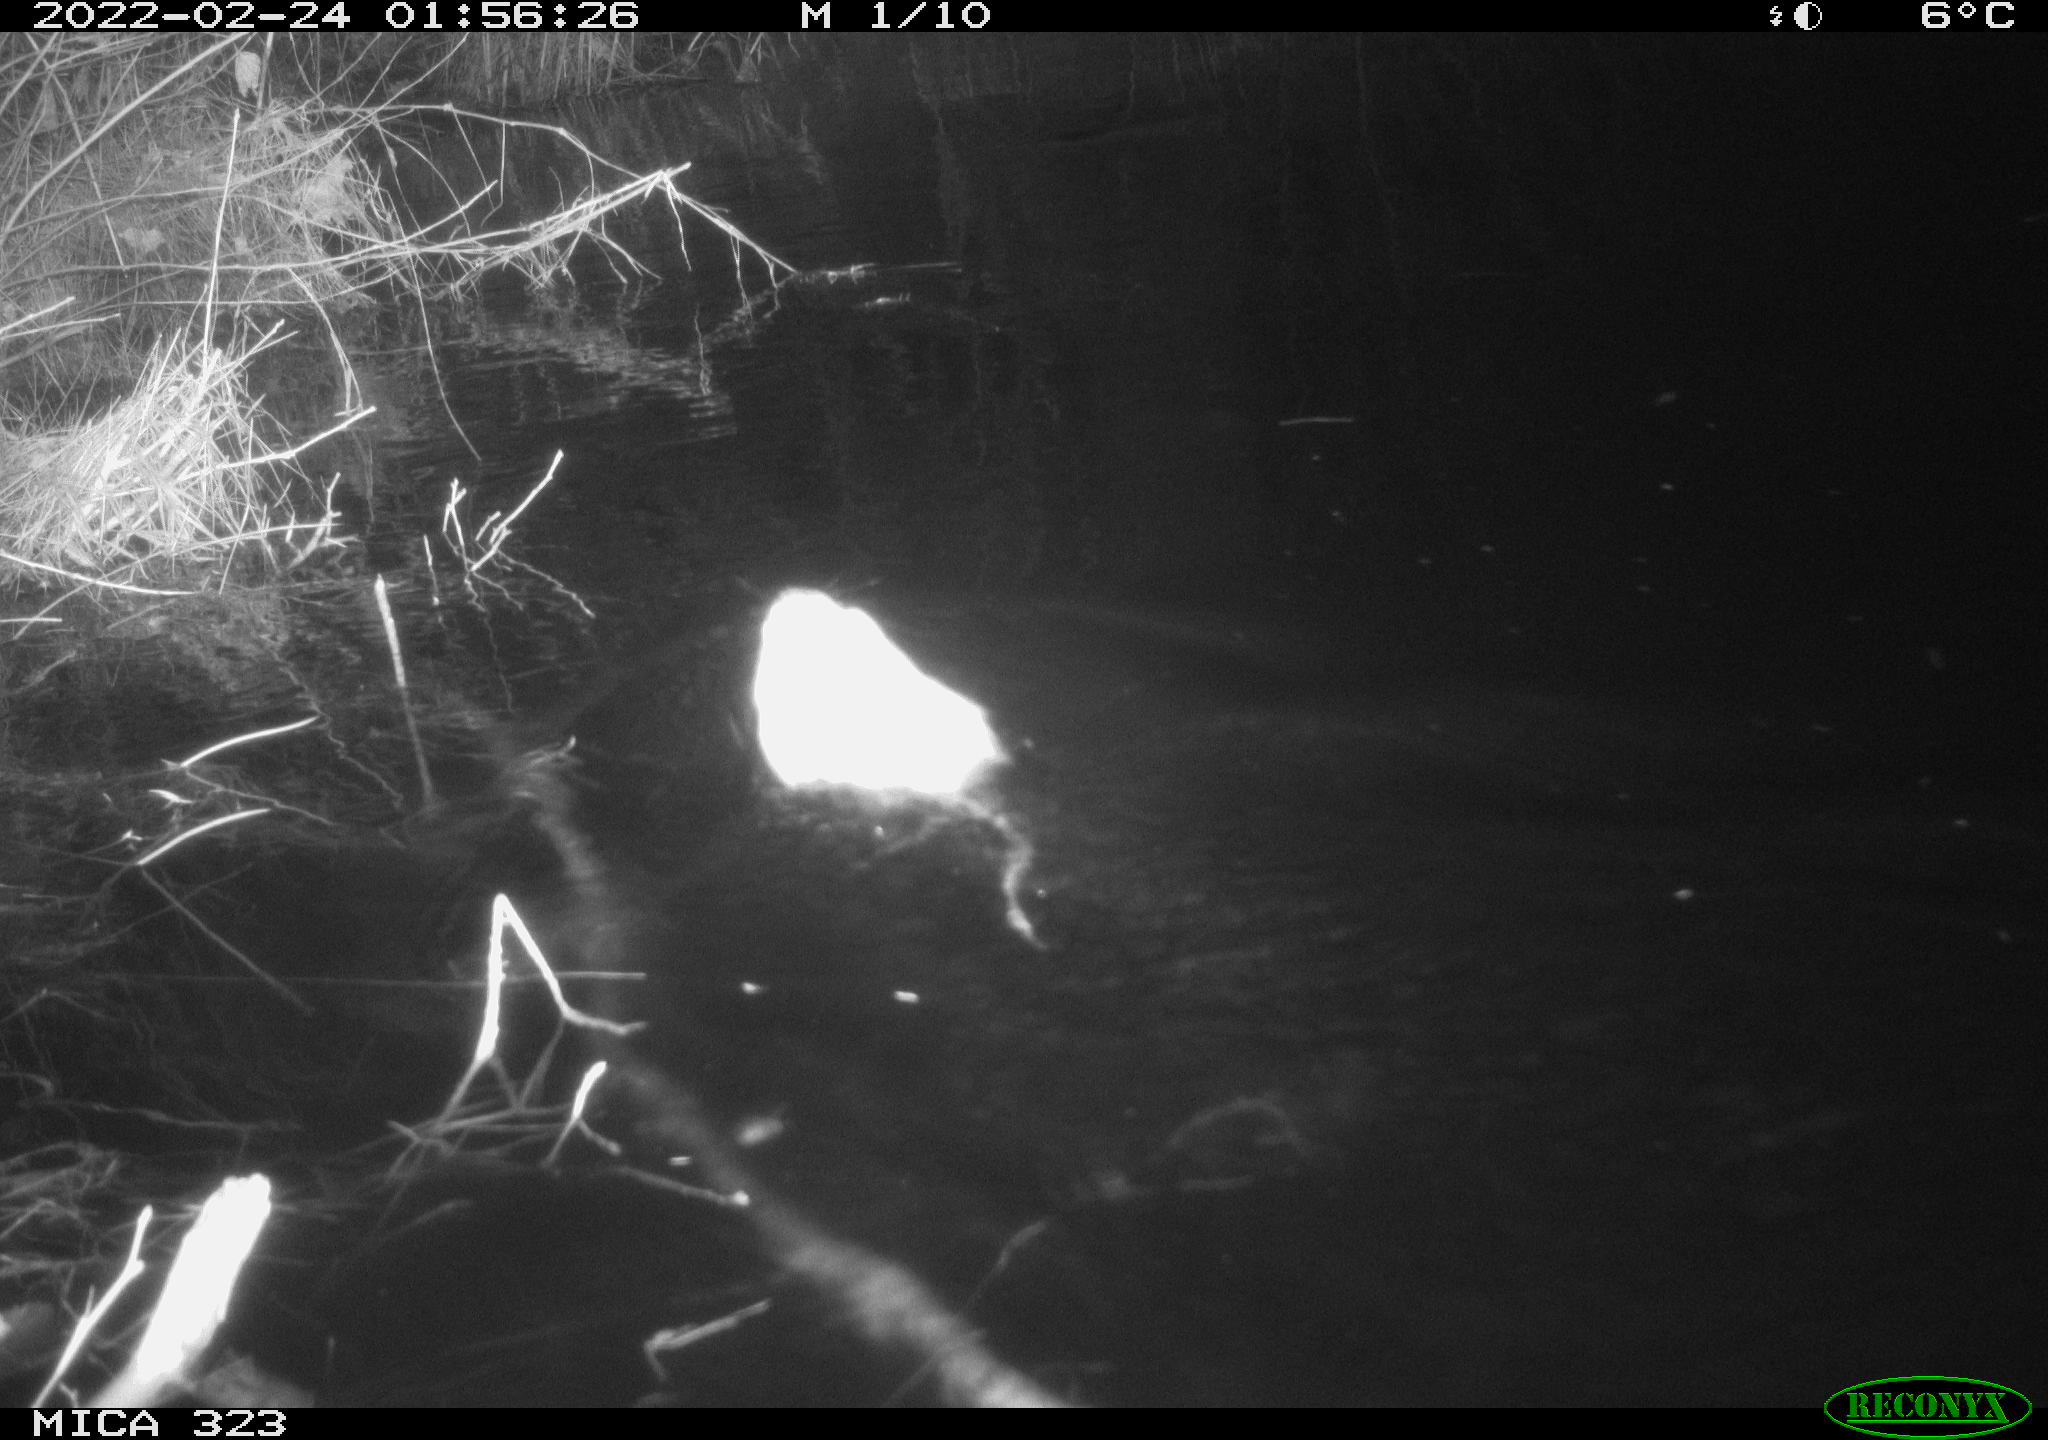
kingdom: Animalia
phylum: Chordata
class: Mammalia
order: Rodentia
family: Cricetidae
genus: Ondatra
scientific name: Ondatra zibethicus
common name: Muskrat
